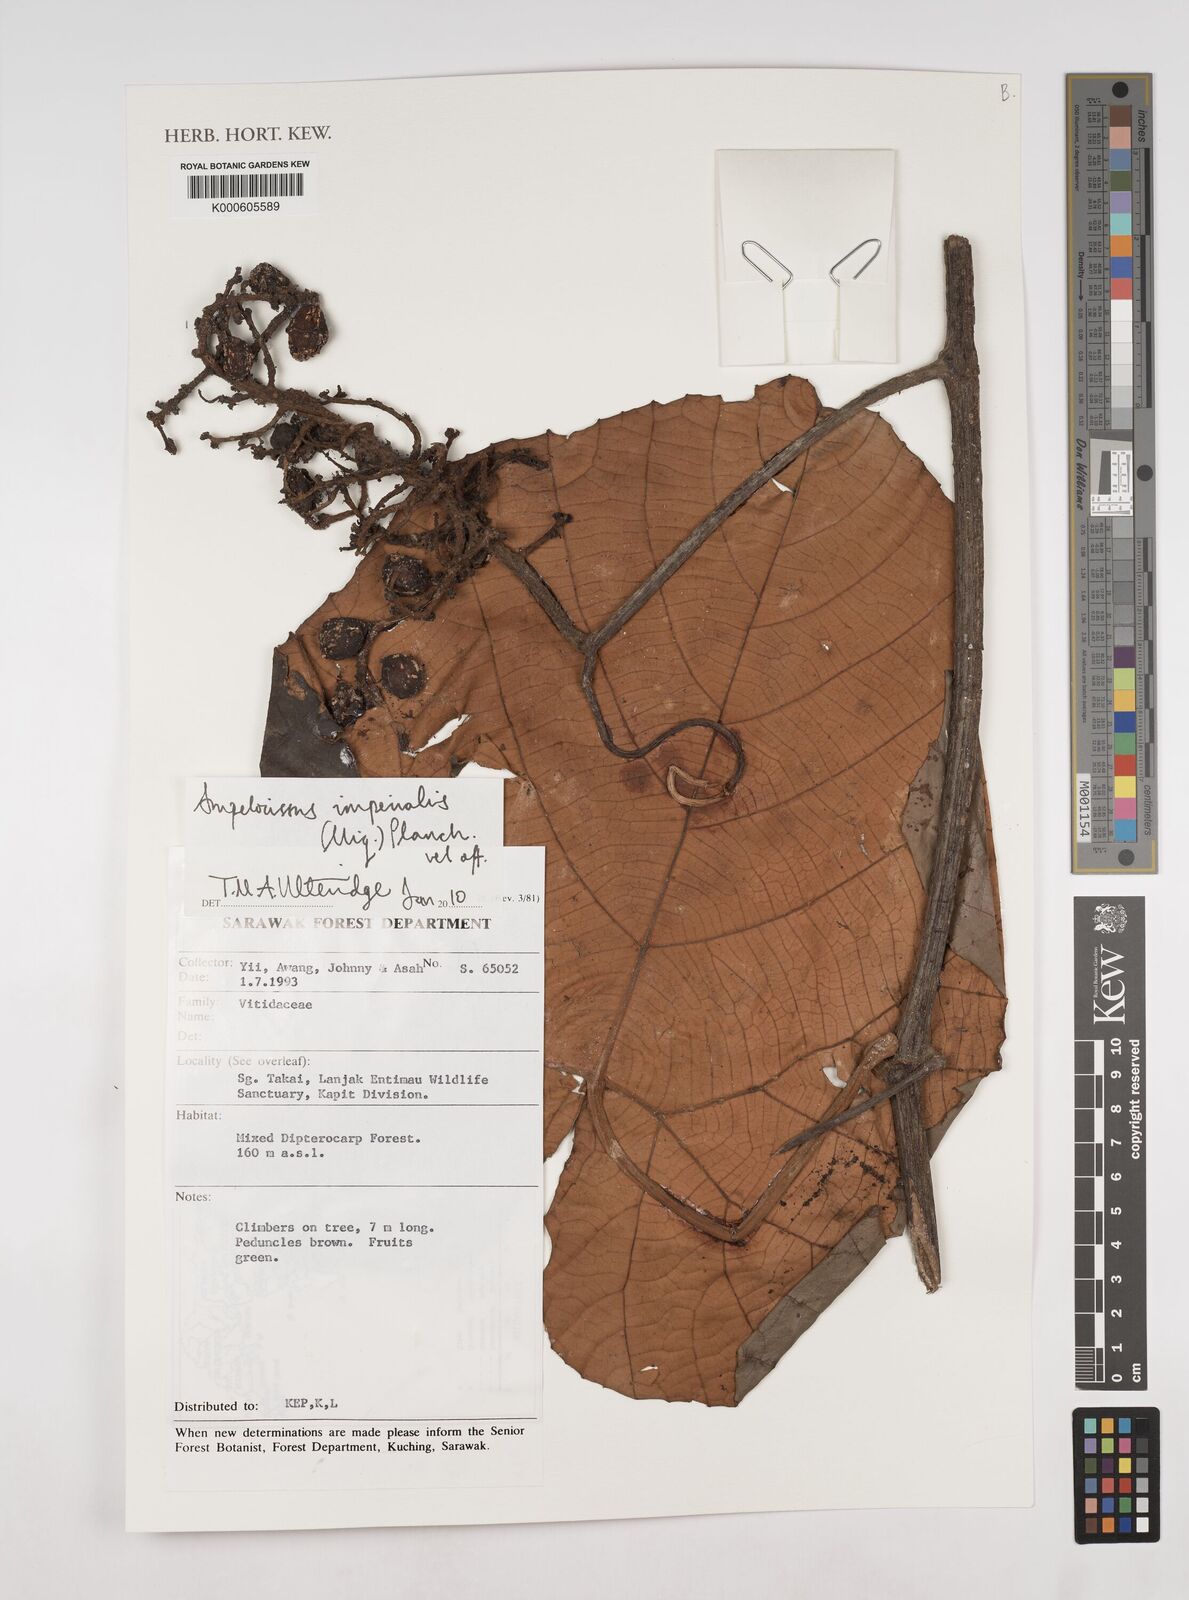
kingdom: Plantae
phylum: Tracheophyta
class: Magnoliopsida
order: Vitales
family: Vitaceae
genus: Ampelocissus
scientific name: Ampelocissus imperialis
